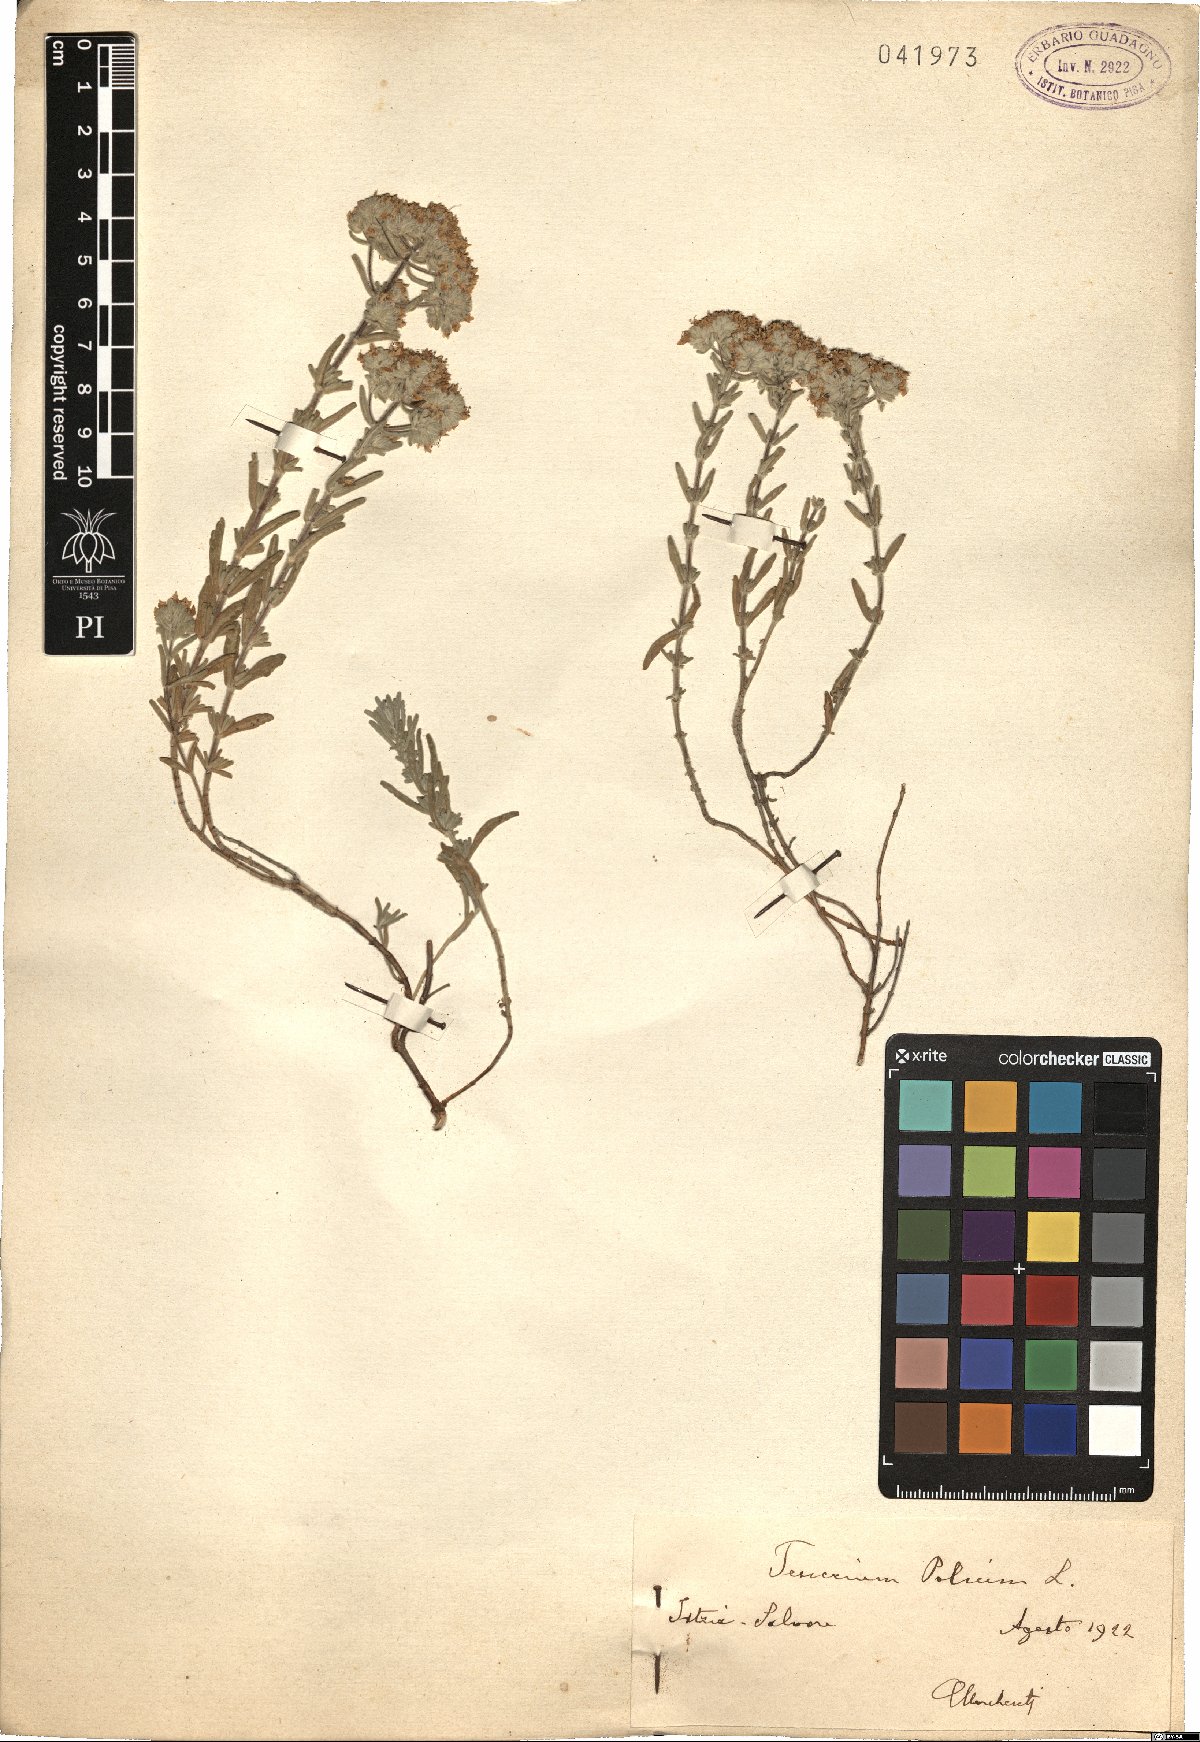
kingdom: Plantae
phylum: Tracheophyta
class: Magnoliopsida
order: Lamiales
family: Lamiaceae
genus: Teucrium
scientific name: Teucrium polium
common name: Poley
